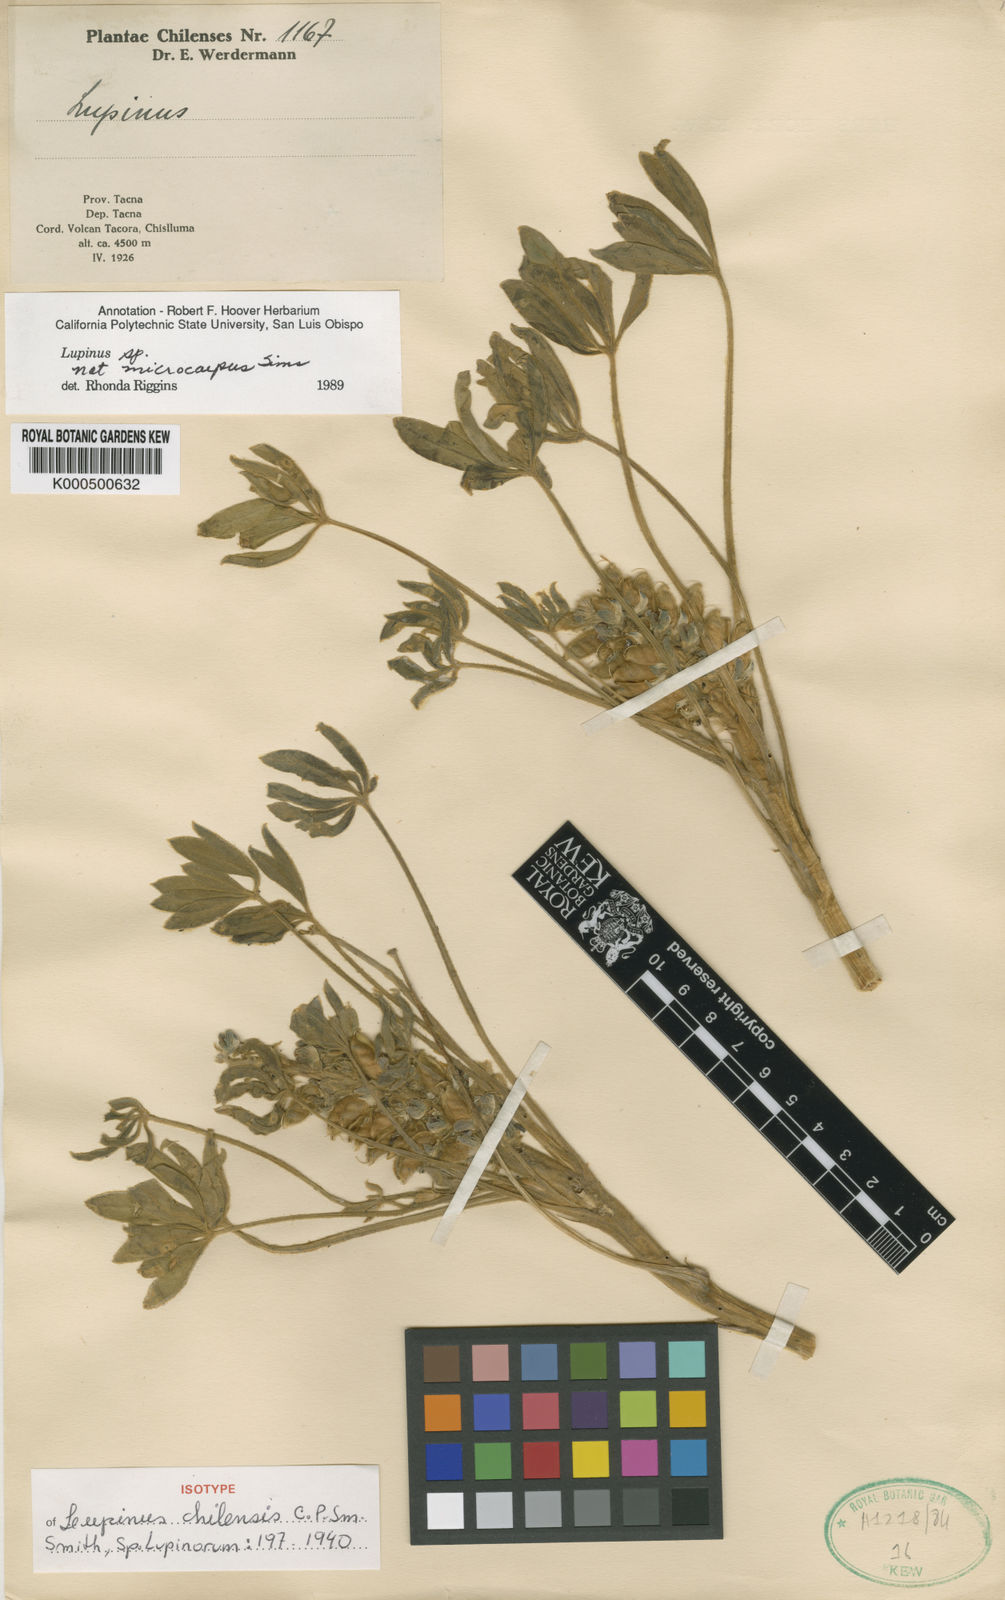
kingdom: Plantae
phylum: Tracheophyta
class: Magnoliopsida
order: Fabales
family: Fabaceae
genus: Lupinus
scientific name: Lupinus subacaulis
